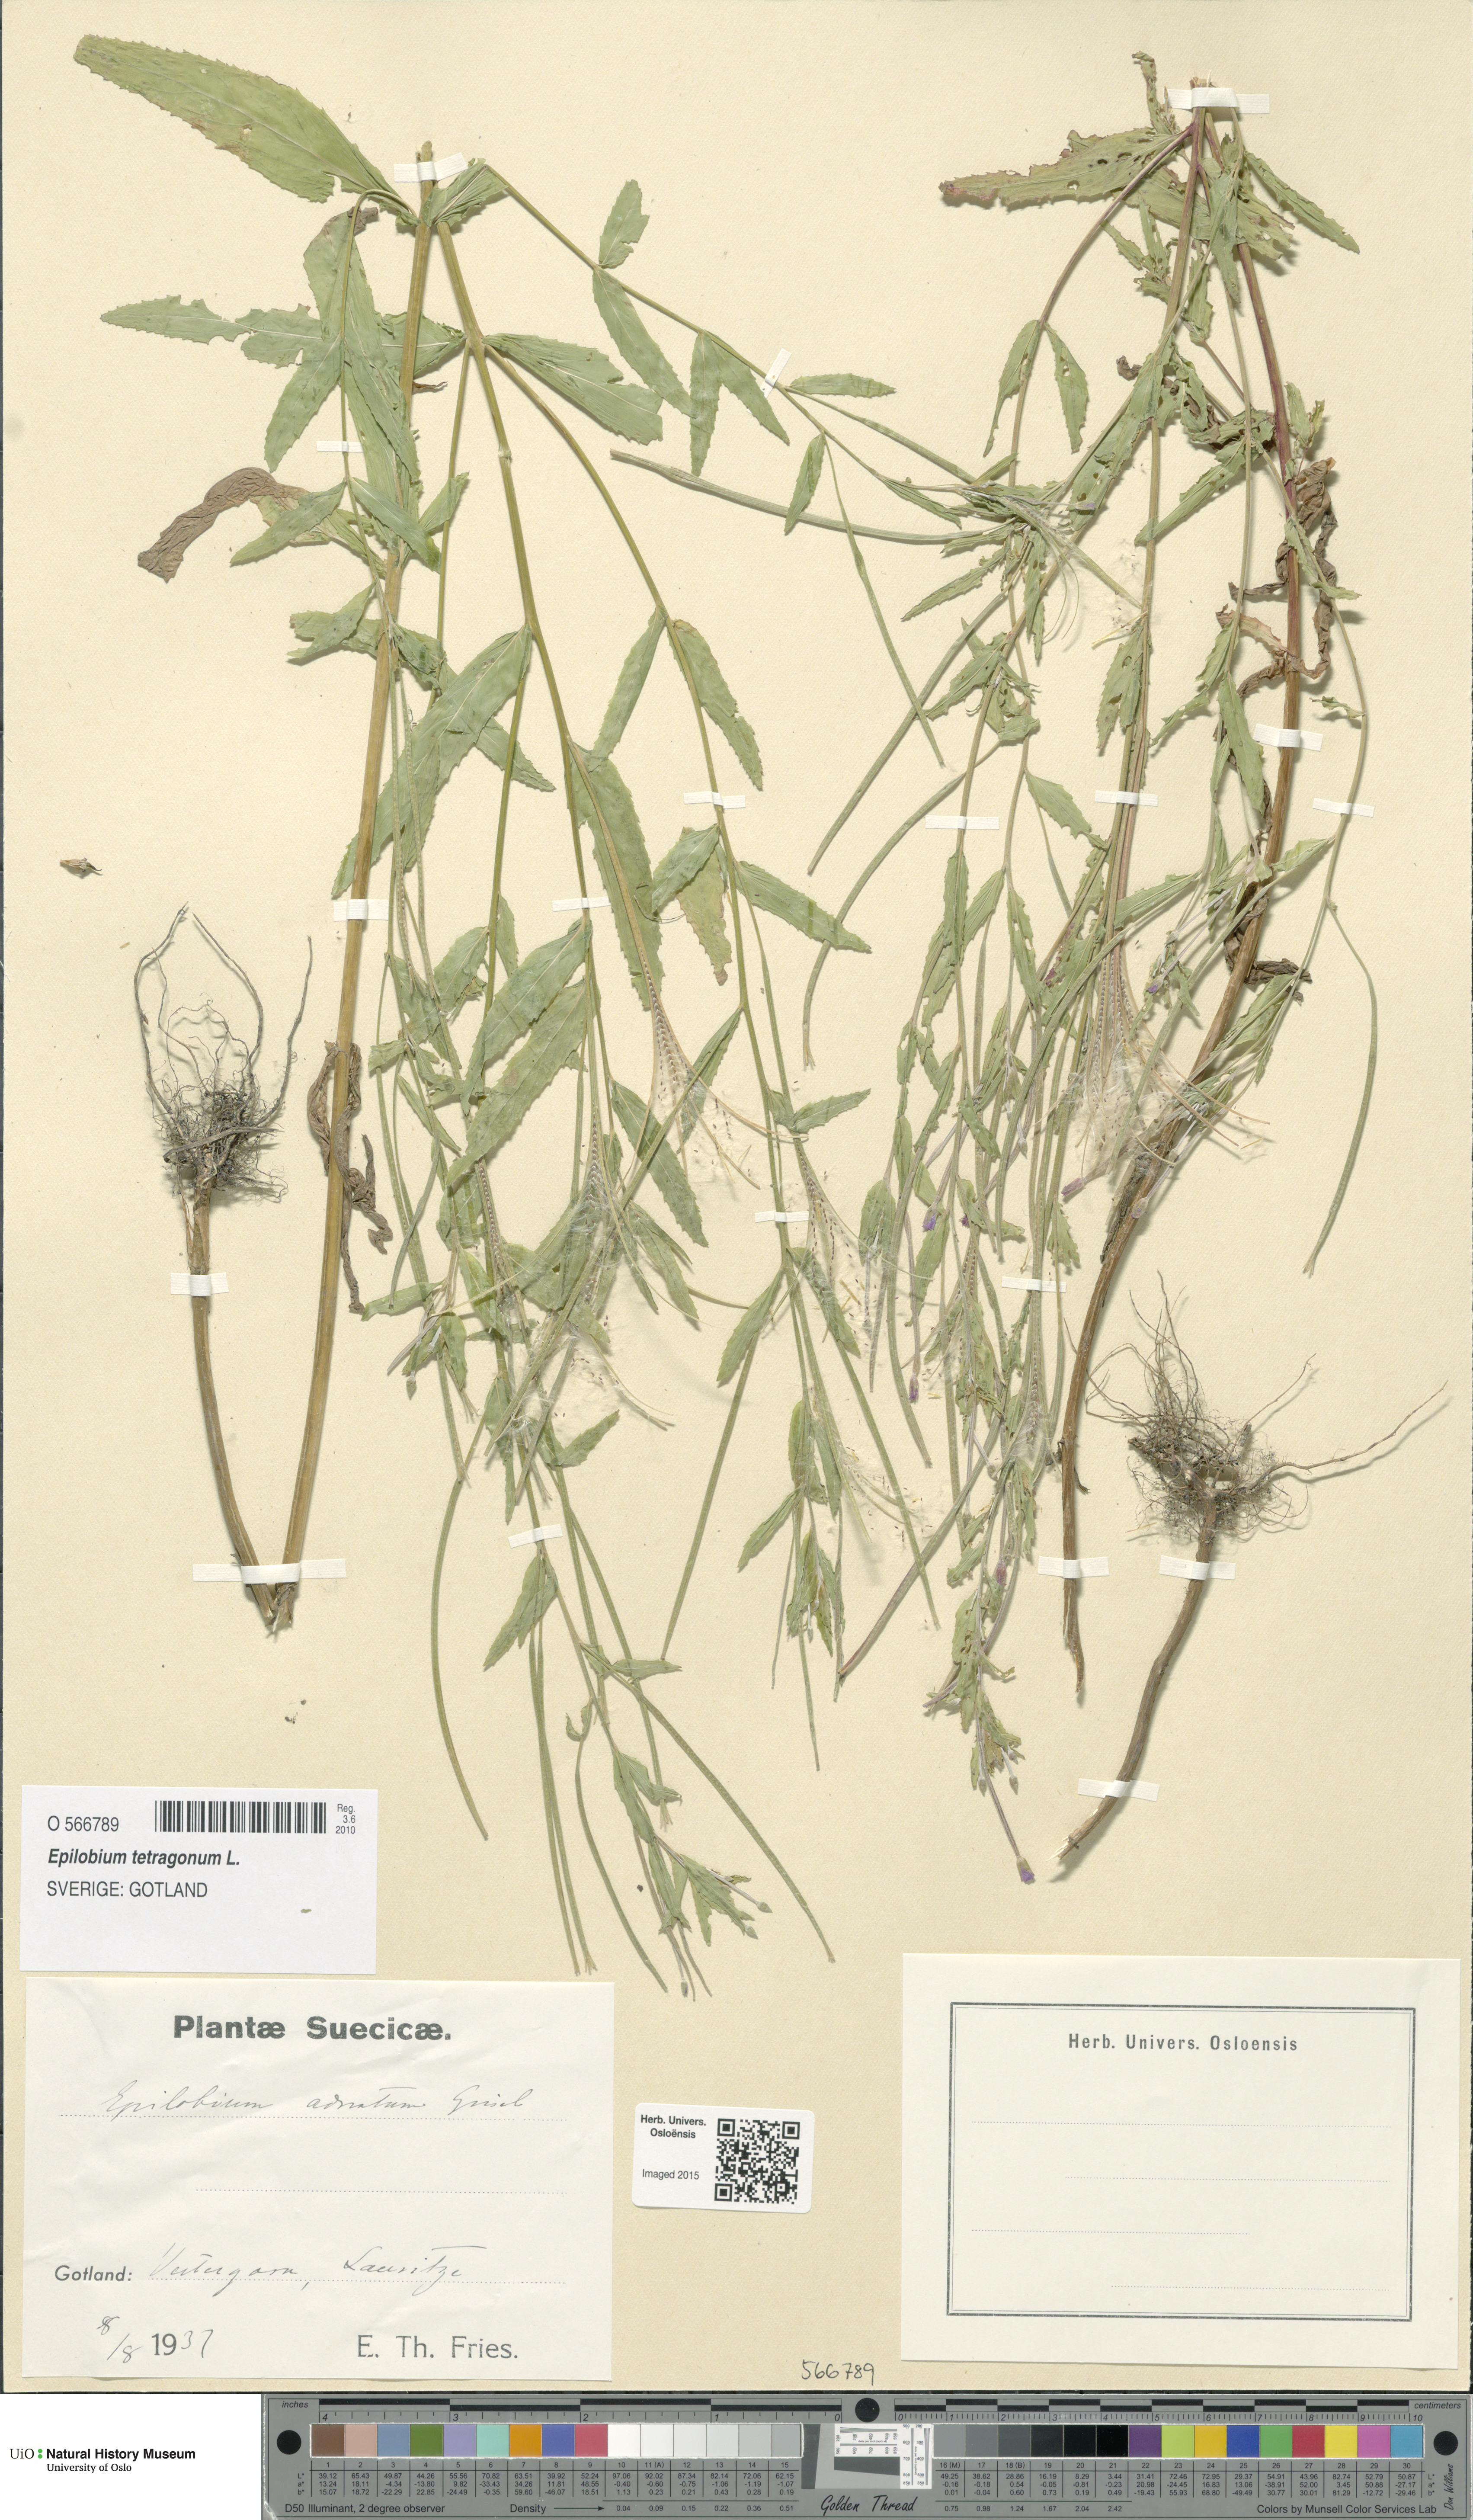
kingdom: Plantae
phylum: Tracheophyta
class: Magnoliopsida
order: Myrtales
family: Onagraceae
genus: Epilobium
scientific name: Epilobium tetragonum
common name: Square-stemmed willowherb
